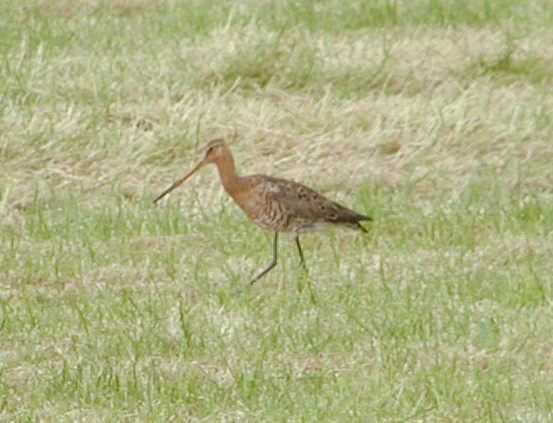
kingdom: Animalia
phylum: Chordata
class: Aves
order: Charadriiformes
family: Scolopacidae
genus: Limosa
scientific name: Limosa limosa
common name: Black-tailed godwit
